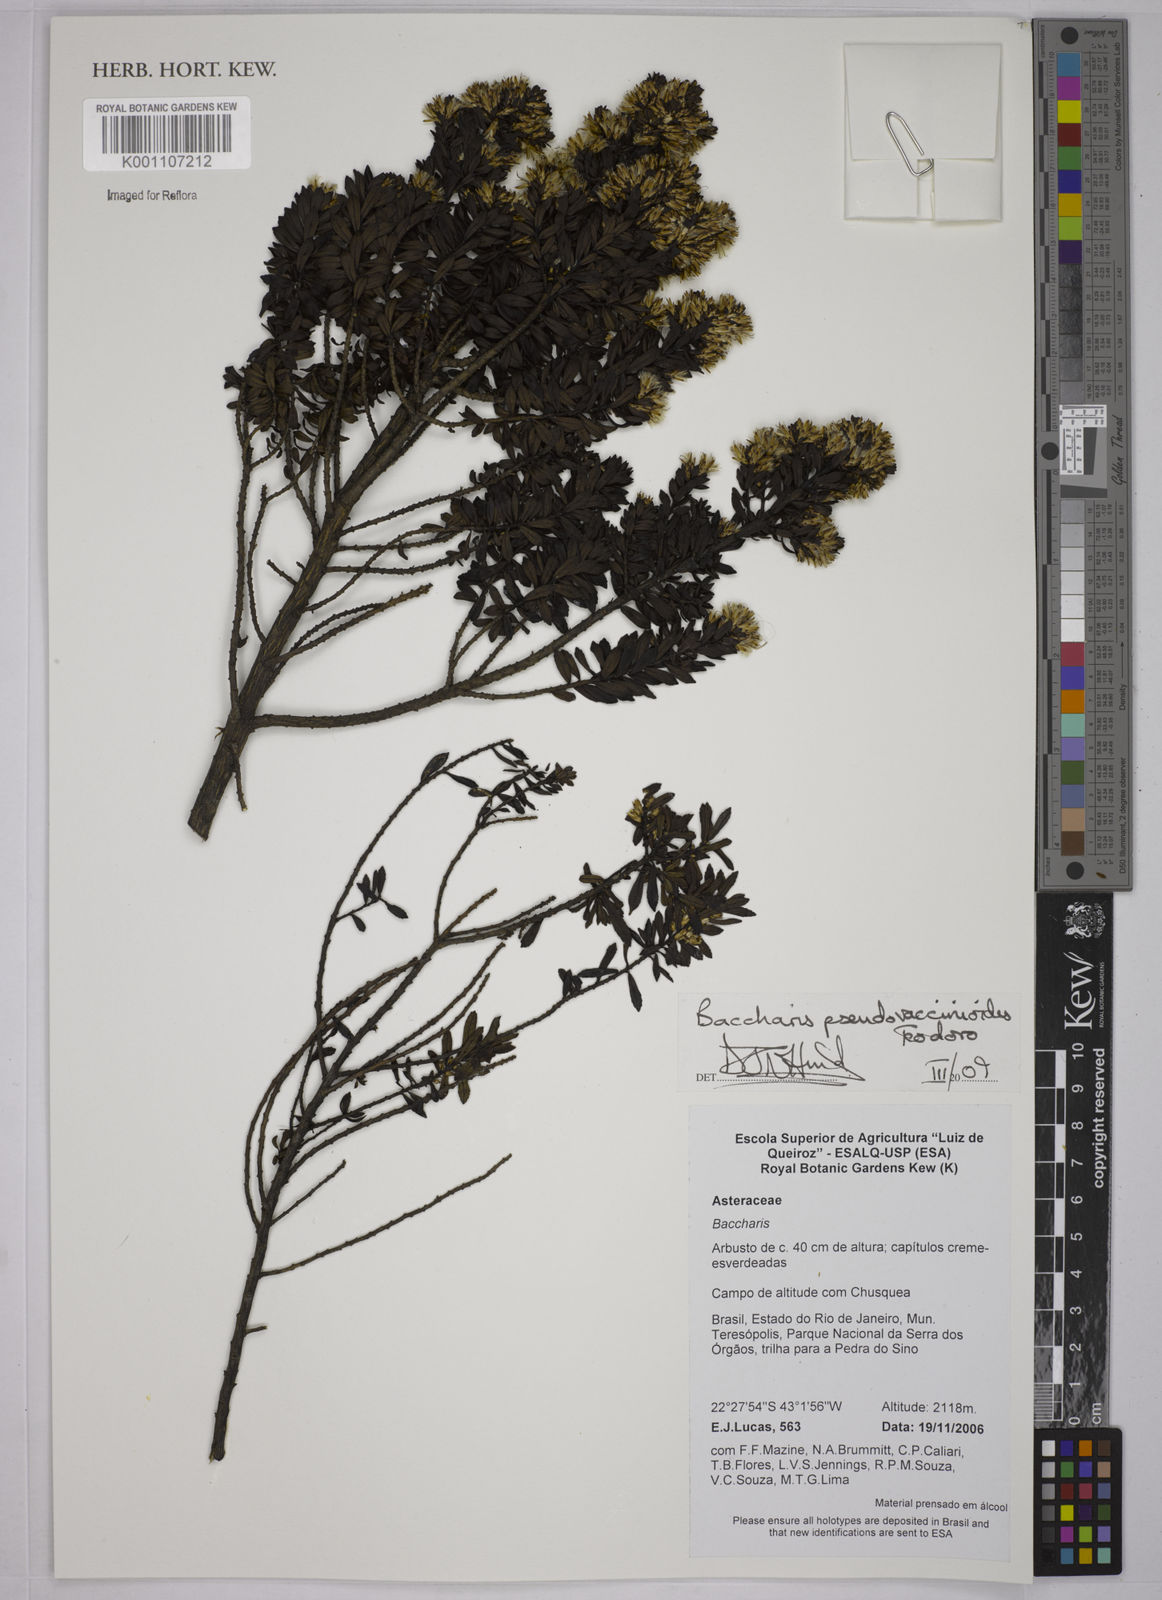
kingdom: Plantae
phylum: Tracheophyta
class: Magnoliopsida
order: Asterales
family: Asteraceae
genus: Baccharis
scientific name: Baccharis pseudovaccinioides
